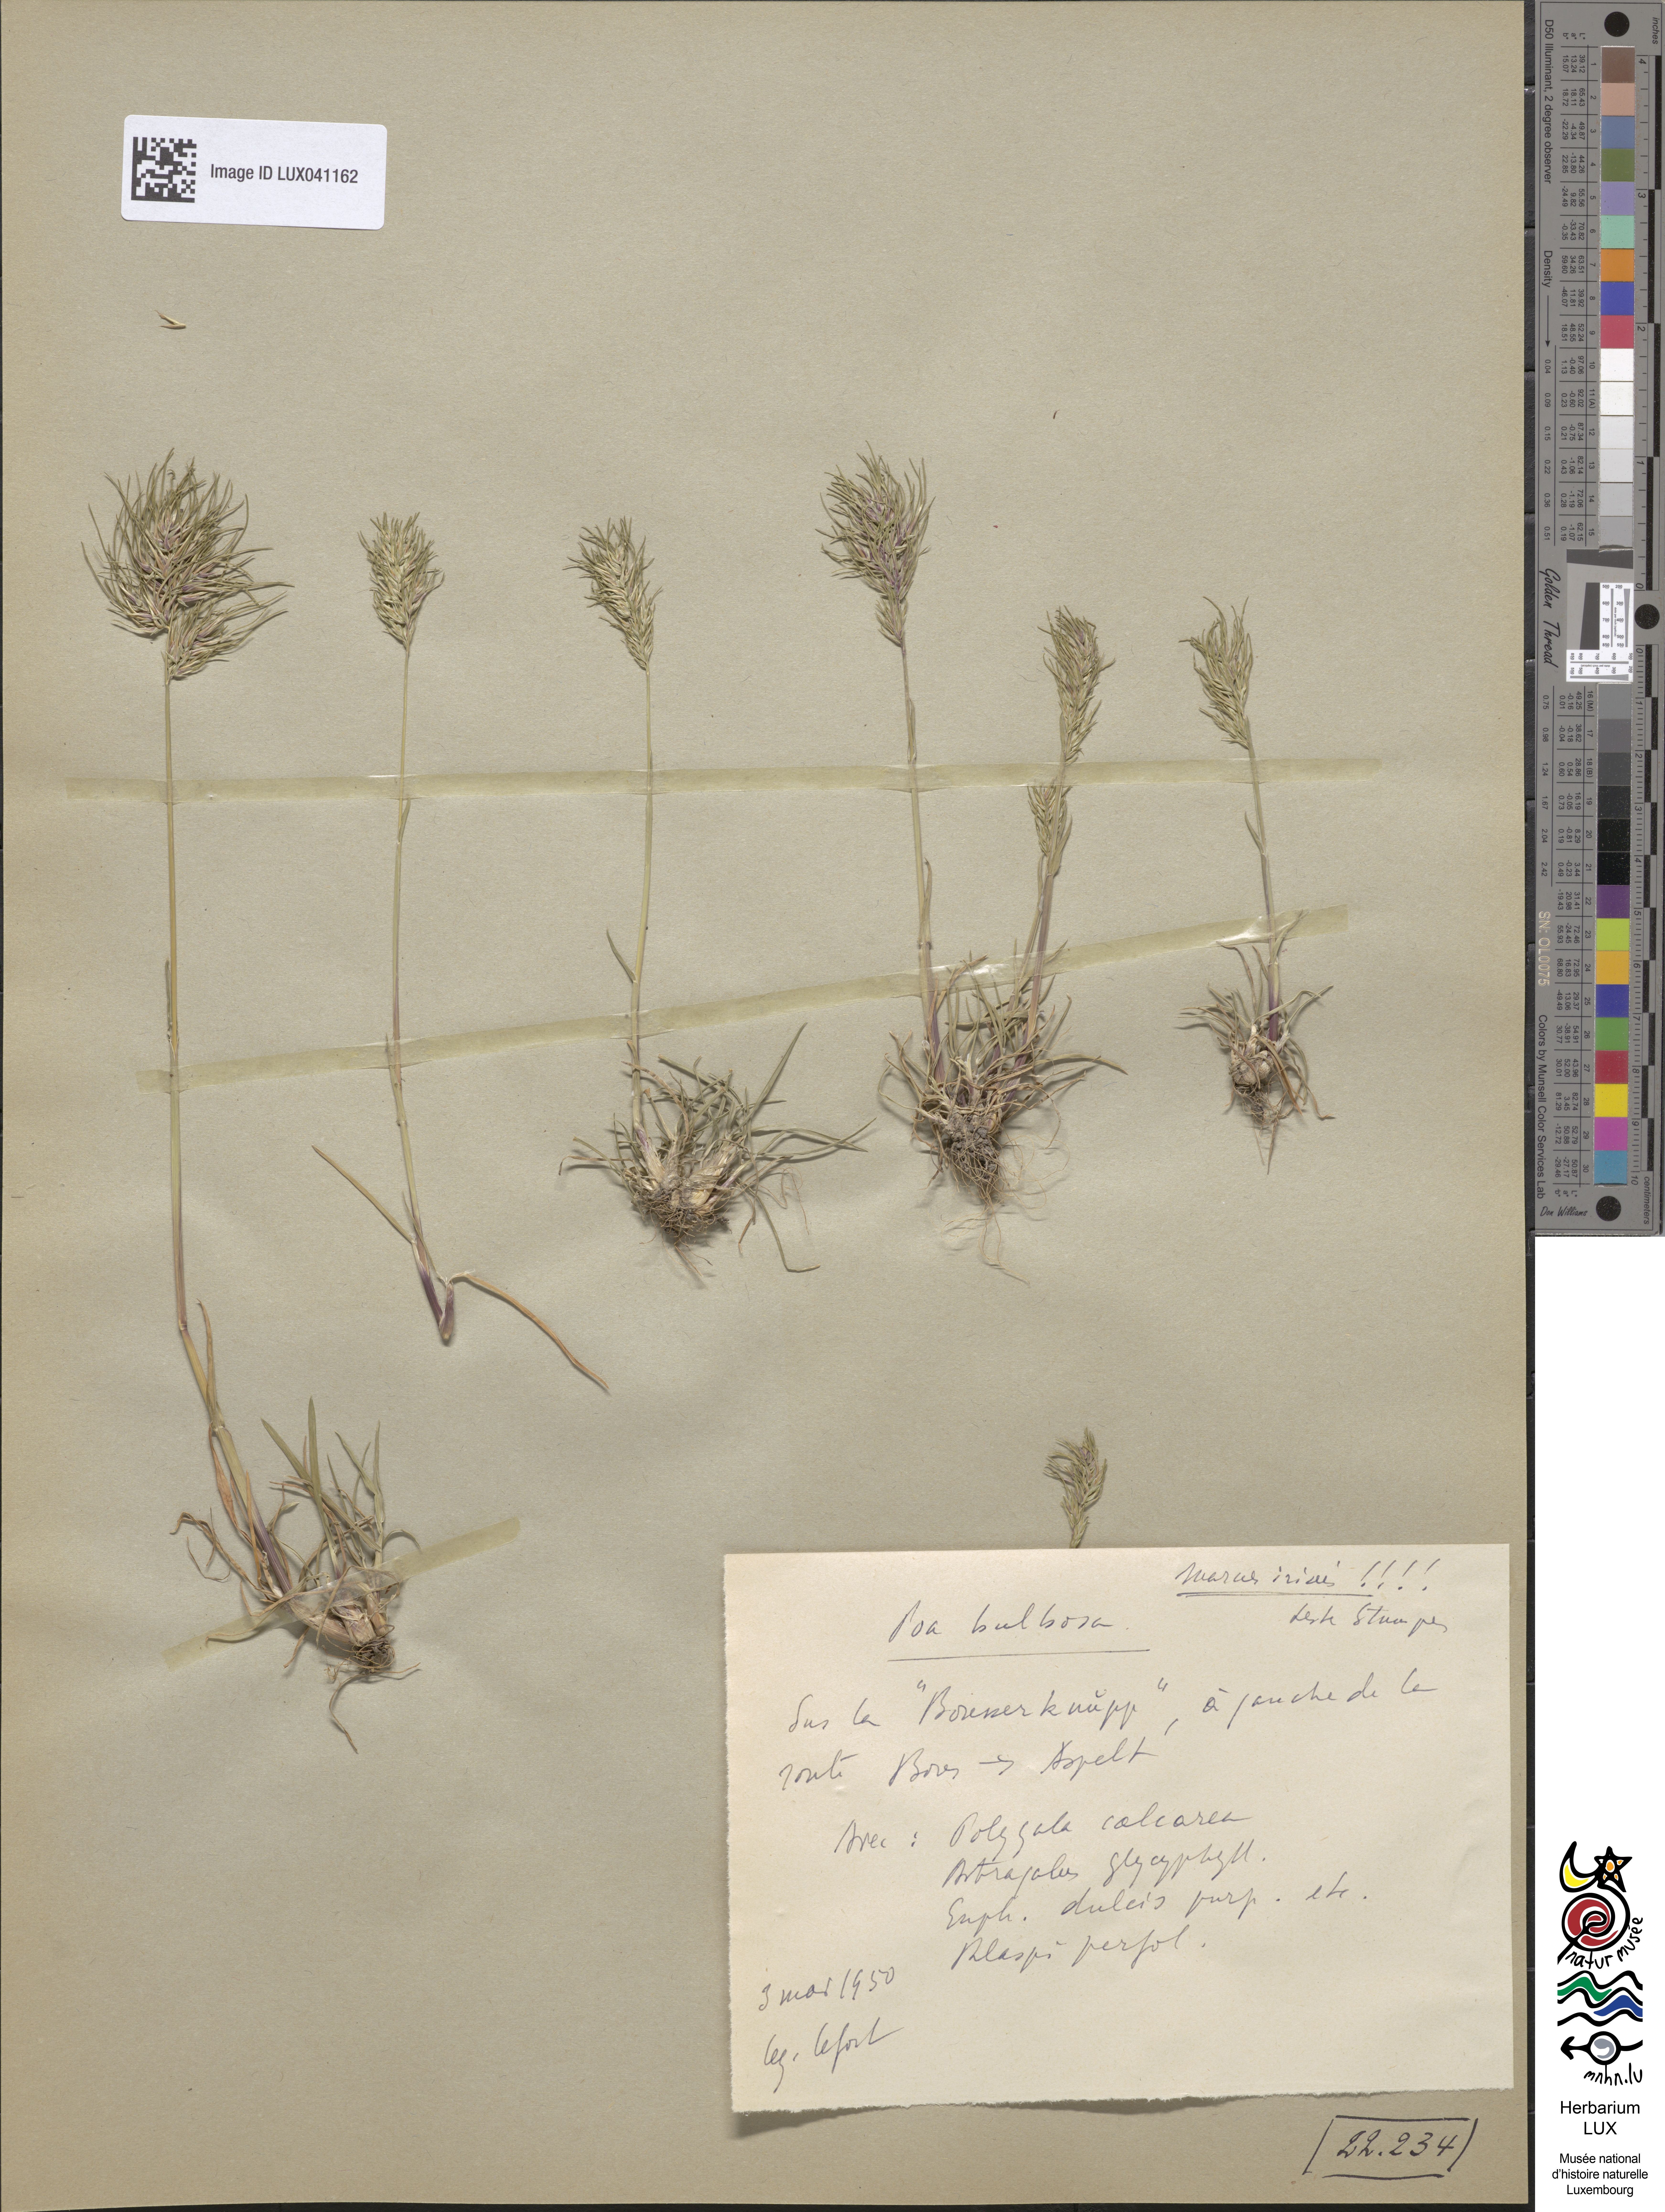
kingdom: Plantae
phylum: Tracheophyta
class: Liliopsida
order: Poales
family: Poaceae
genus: Poa
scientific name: Poa bulbosa
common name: Bulbous bluegrass
